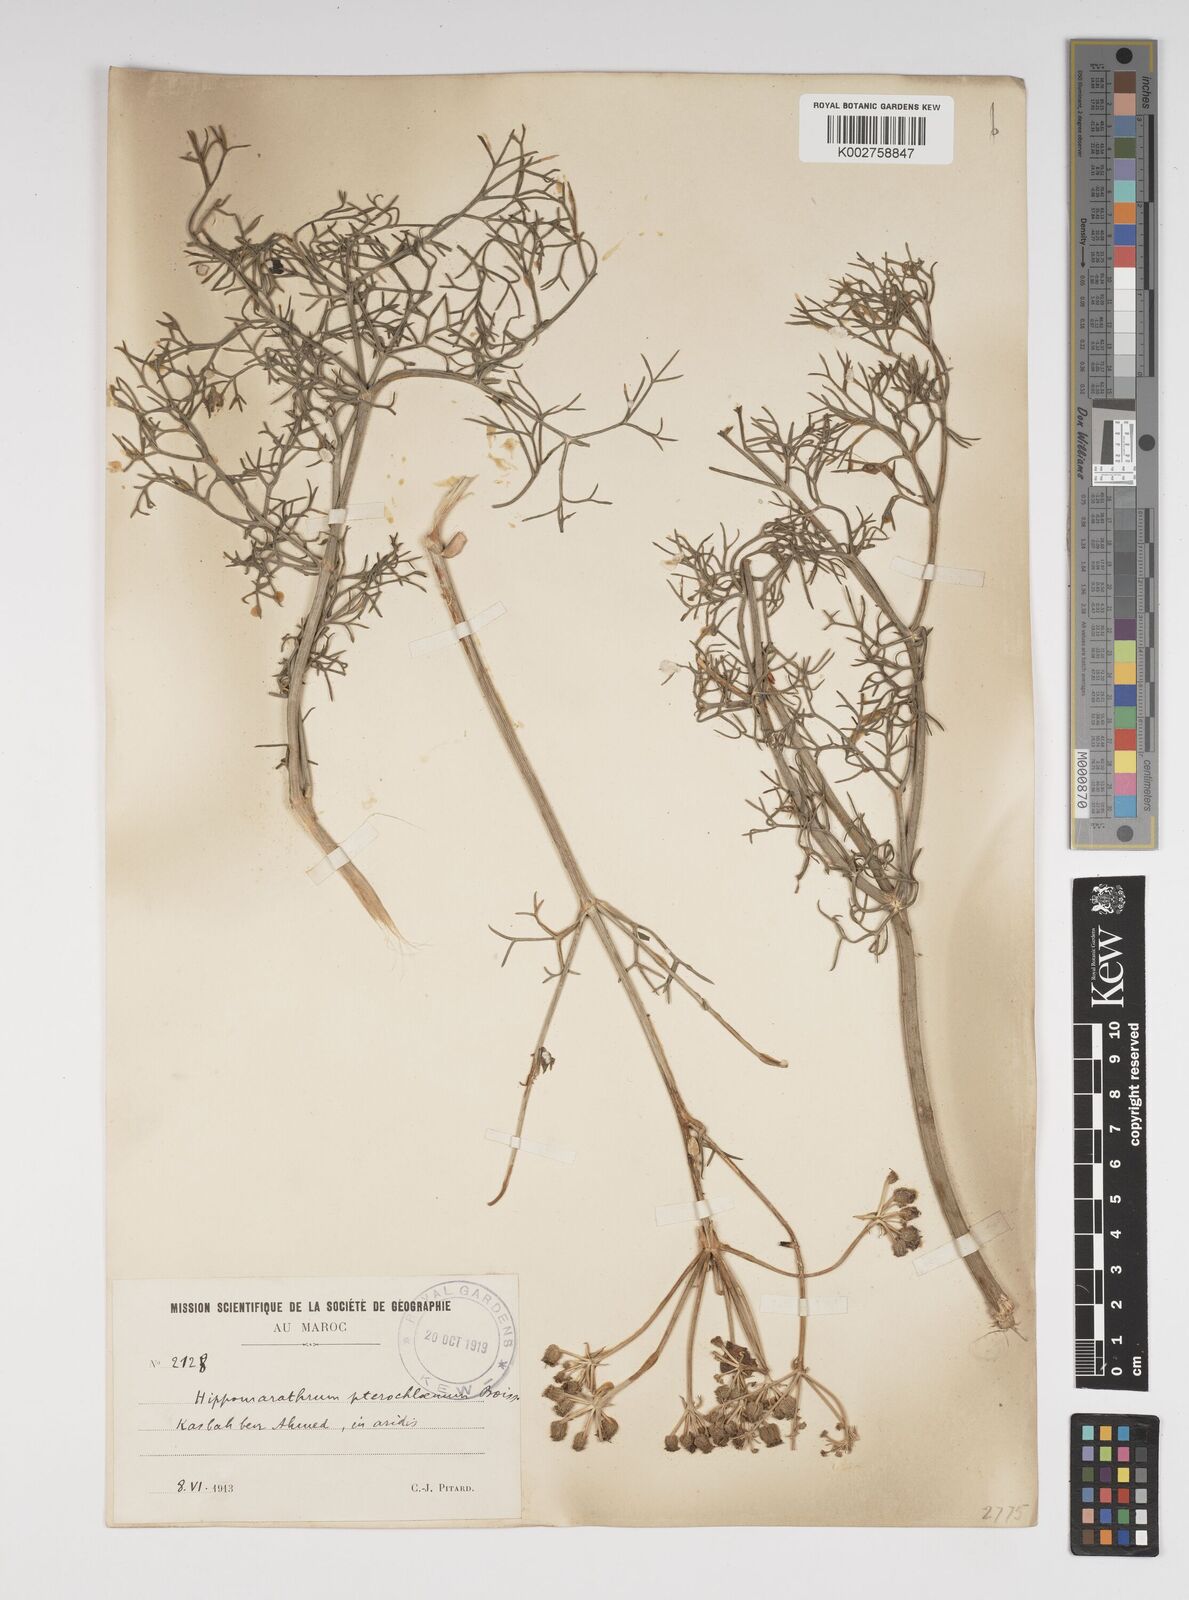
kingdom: Plantae
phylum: Tracheophyta
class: Magnoliopsida
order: Apiales
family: Apiaceae
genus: Cachrys
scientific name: Cachrys sicula
